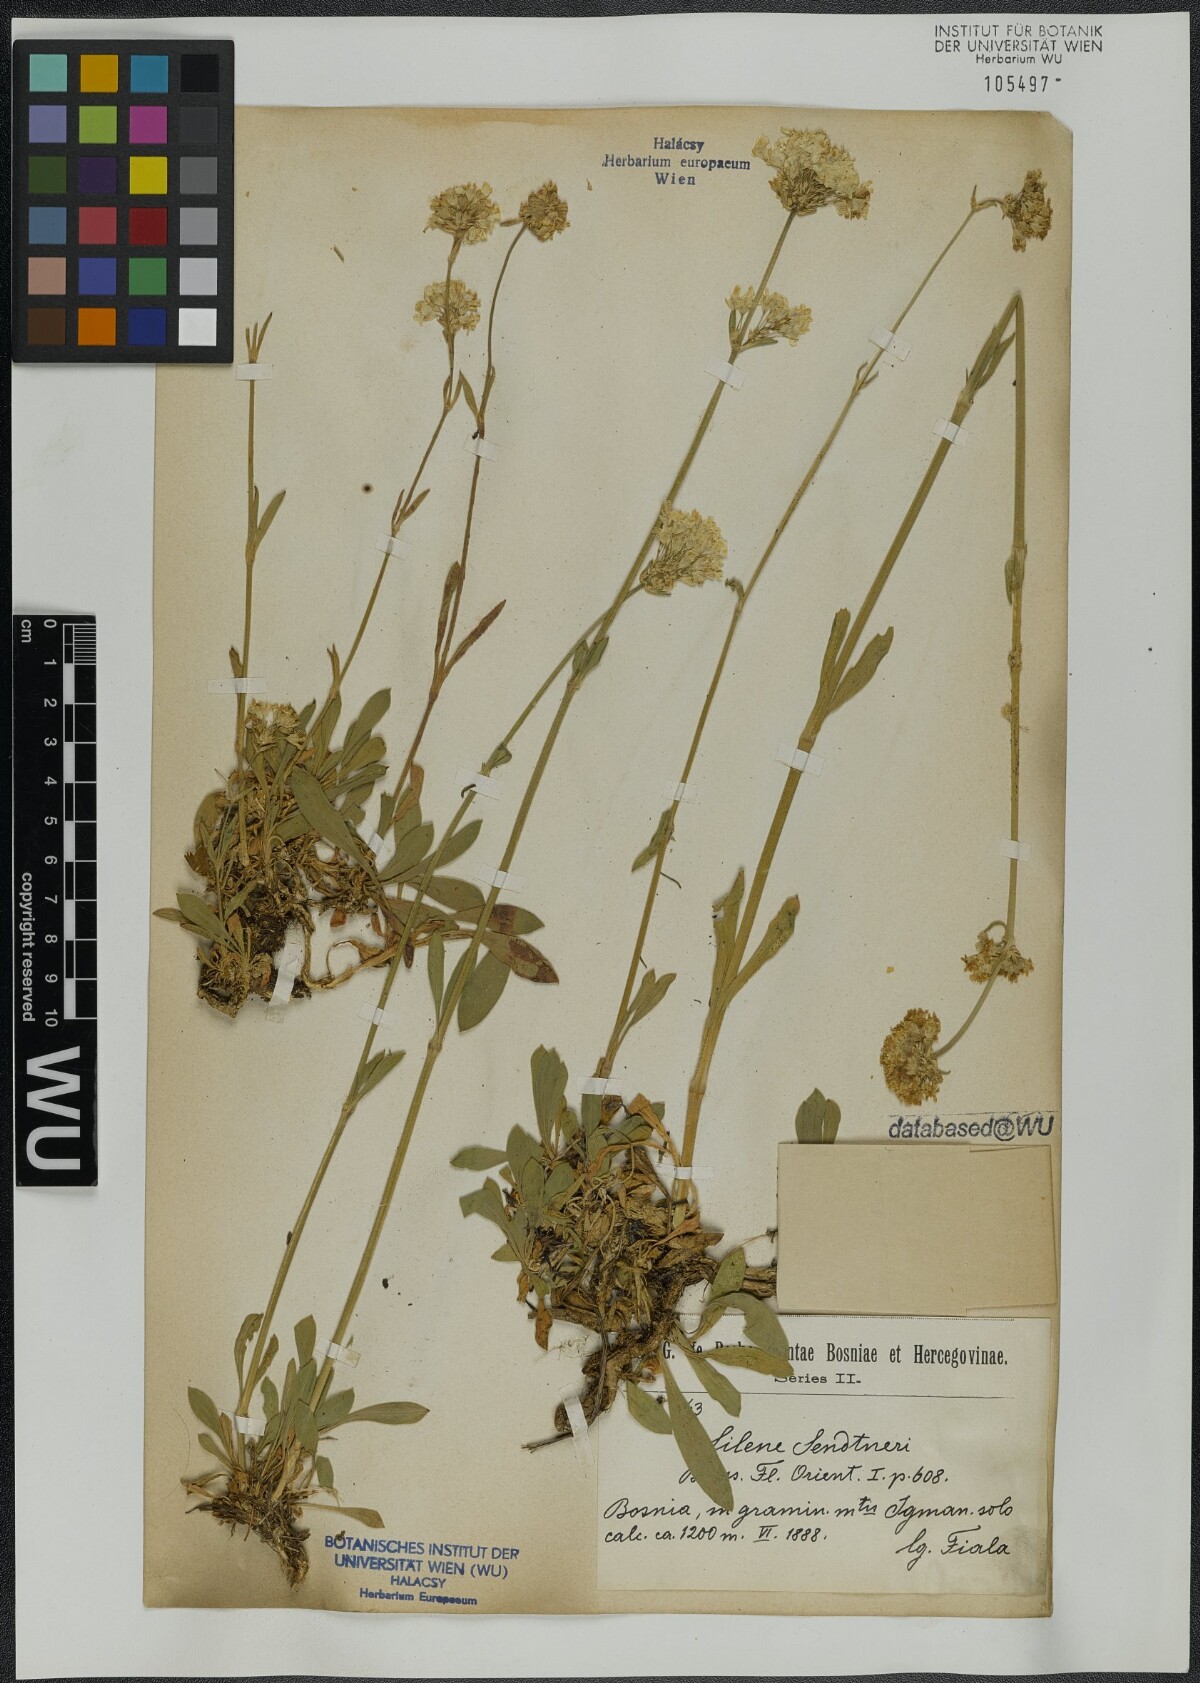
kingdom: Plantae
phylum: Tracheophyta
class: Magnoliopsida
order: Caryophyllales
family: Caryophyllaceae
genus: Silene
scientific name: Silene sendtneri
